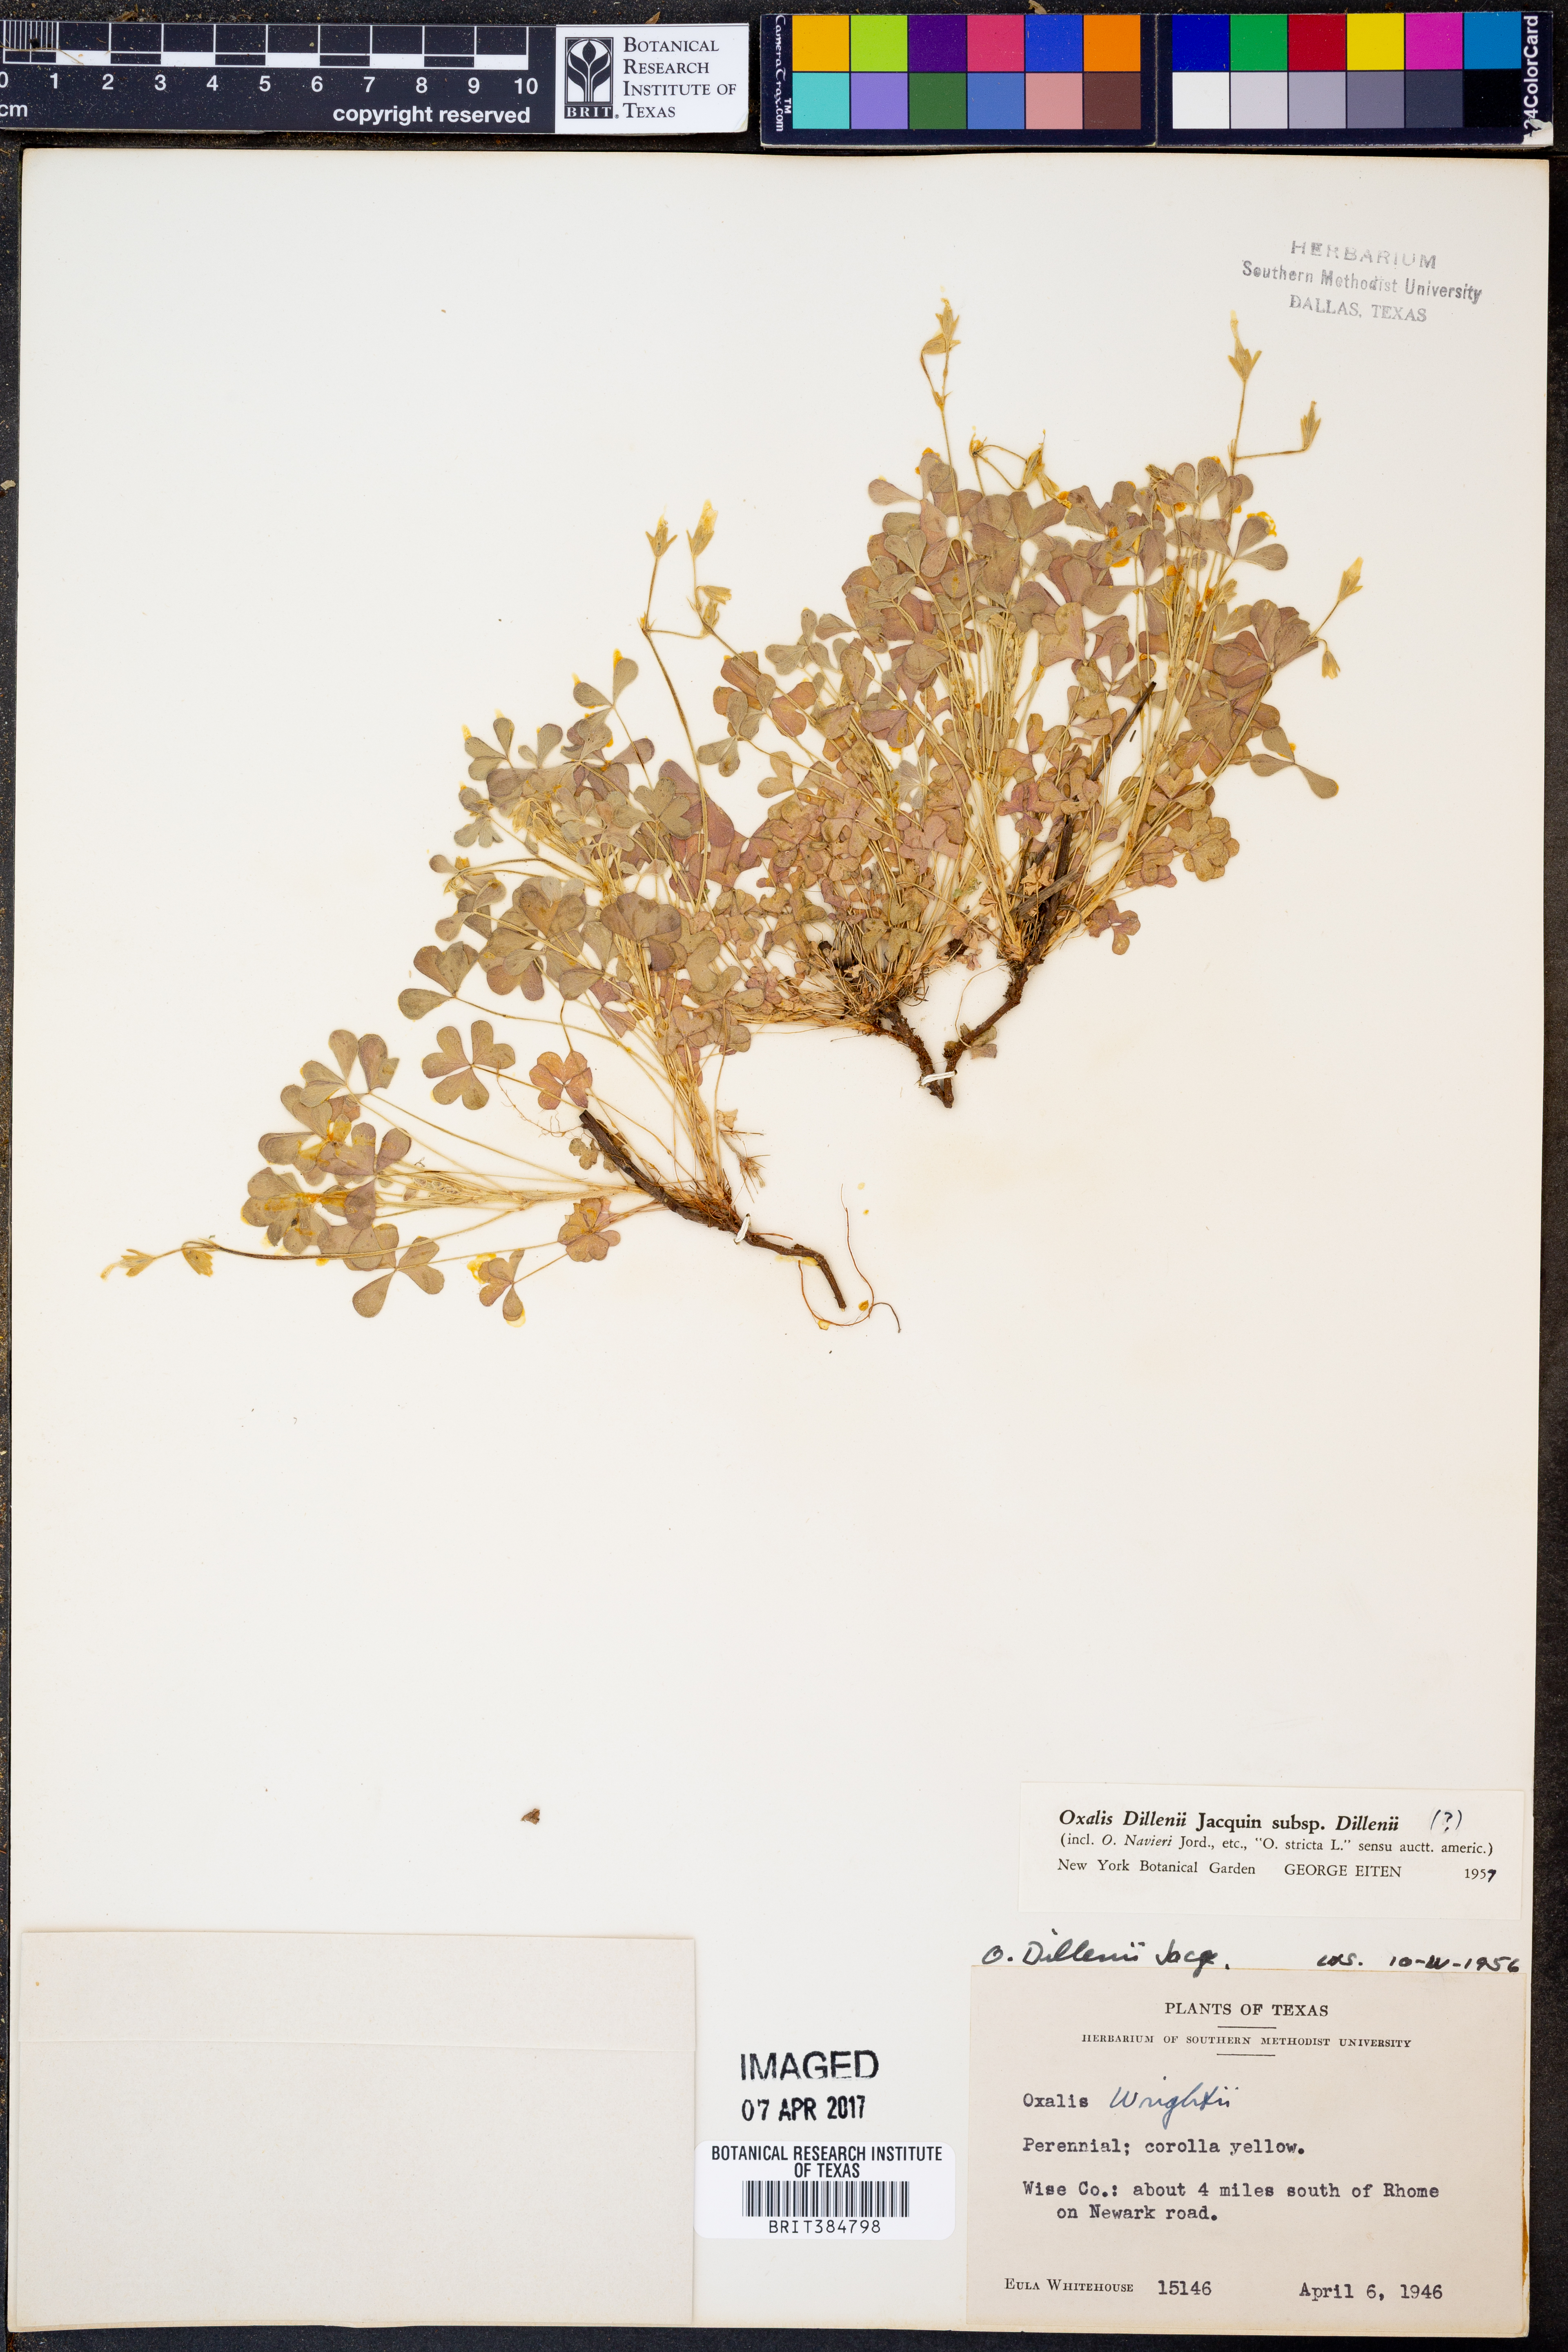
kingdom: Plantae
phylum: Tracheophyta
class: Magnoliopsida
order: Oxalidales
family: Oxalidaceae
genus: Oxalis
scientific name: Oxalis dillenii
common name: Sussex yellow-sorrel
